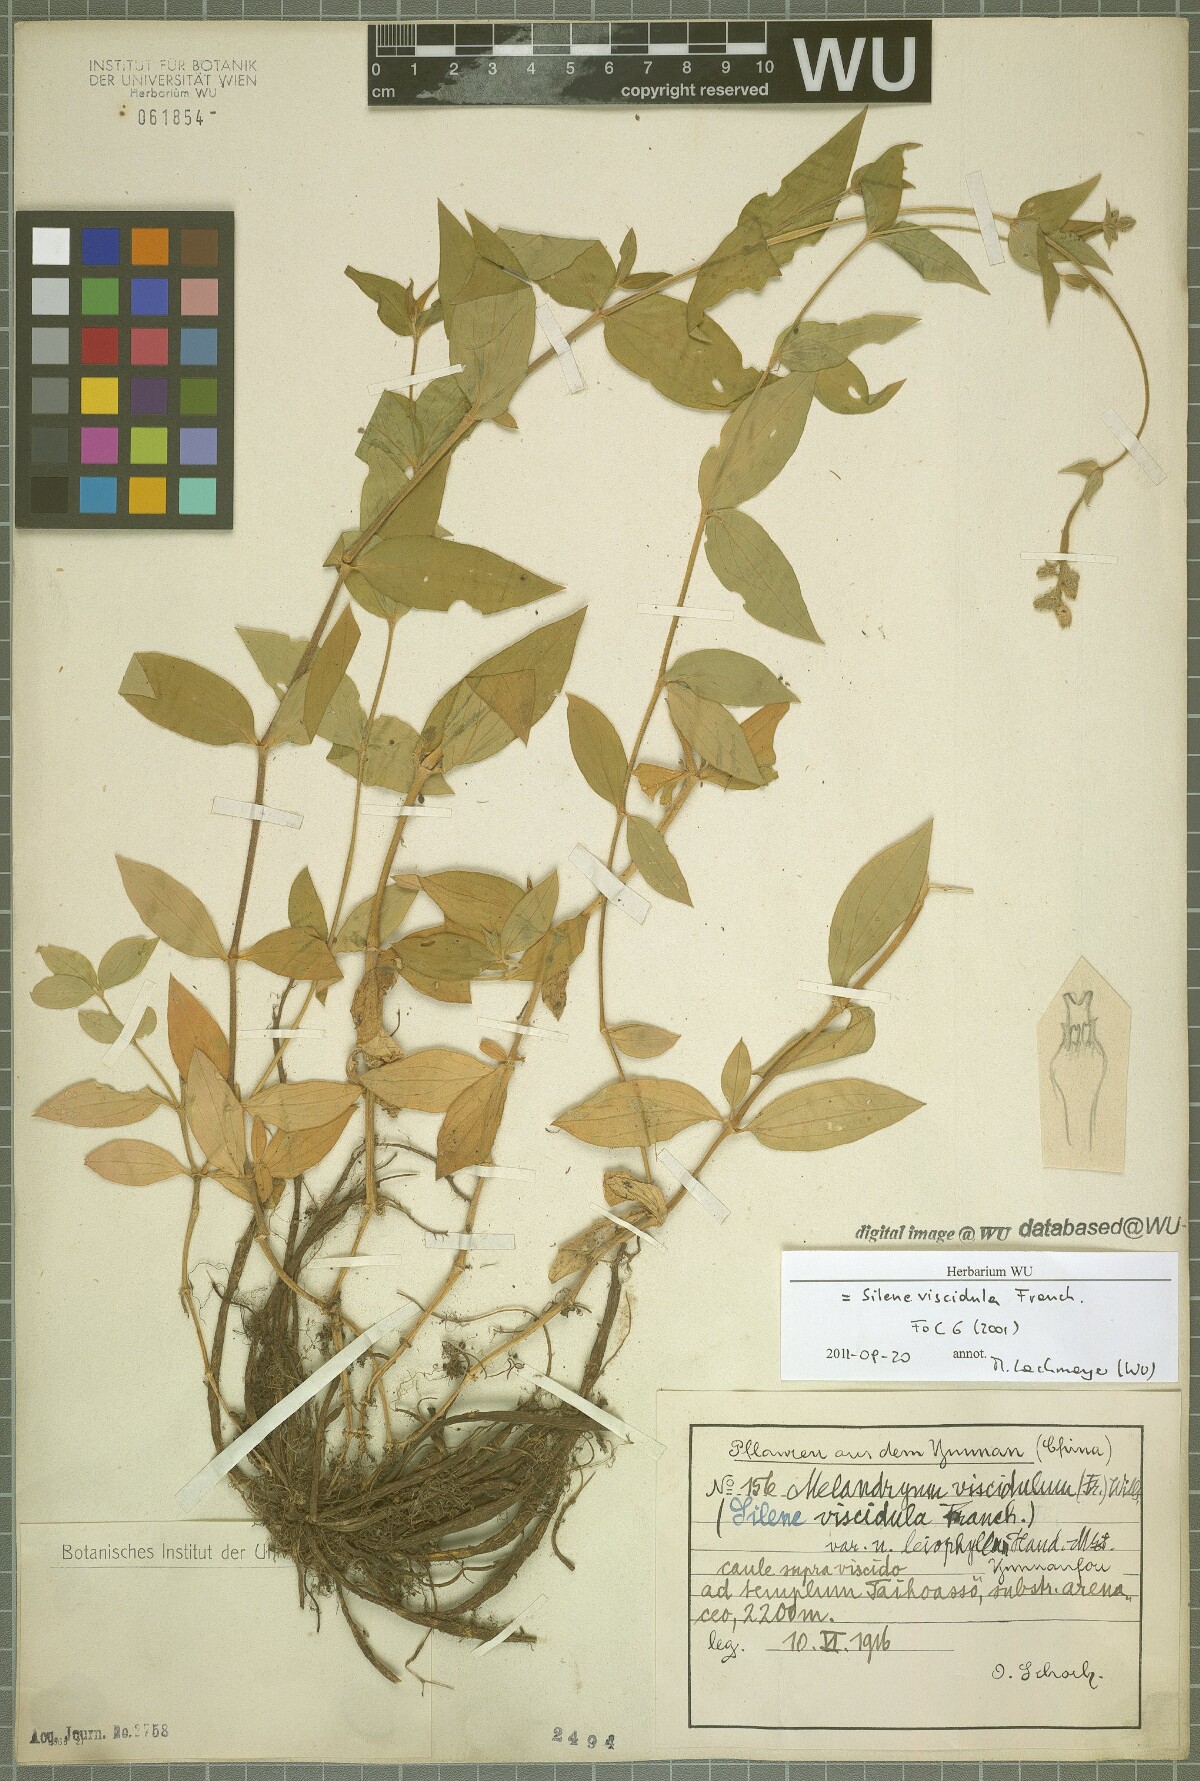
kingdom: Plantae
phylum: Tracheophyta
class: Magnoliopsida
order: Caryophyllales
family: Caryophyllaceae
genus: Silene
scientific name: Silene viscidula
